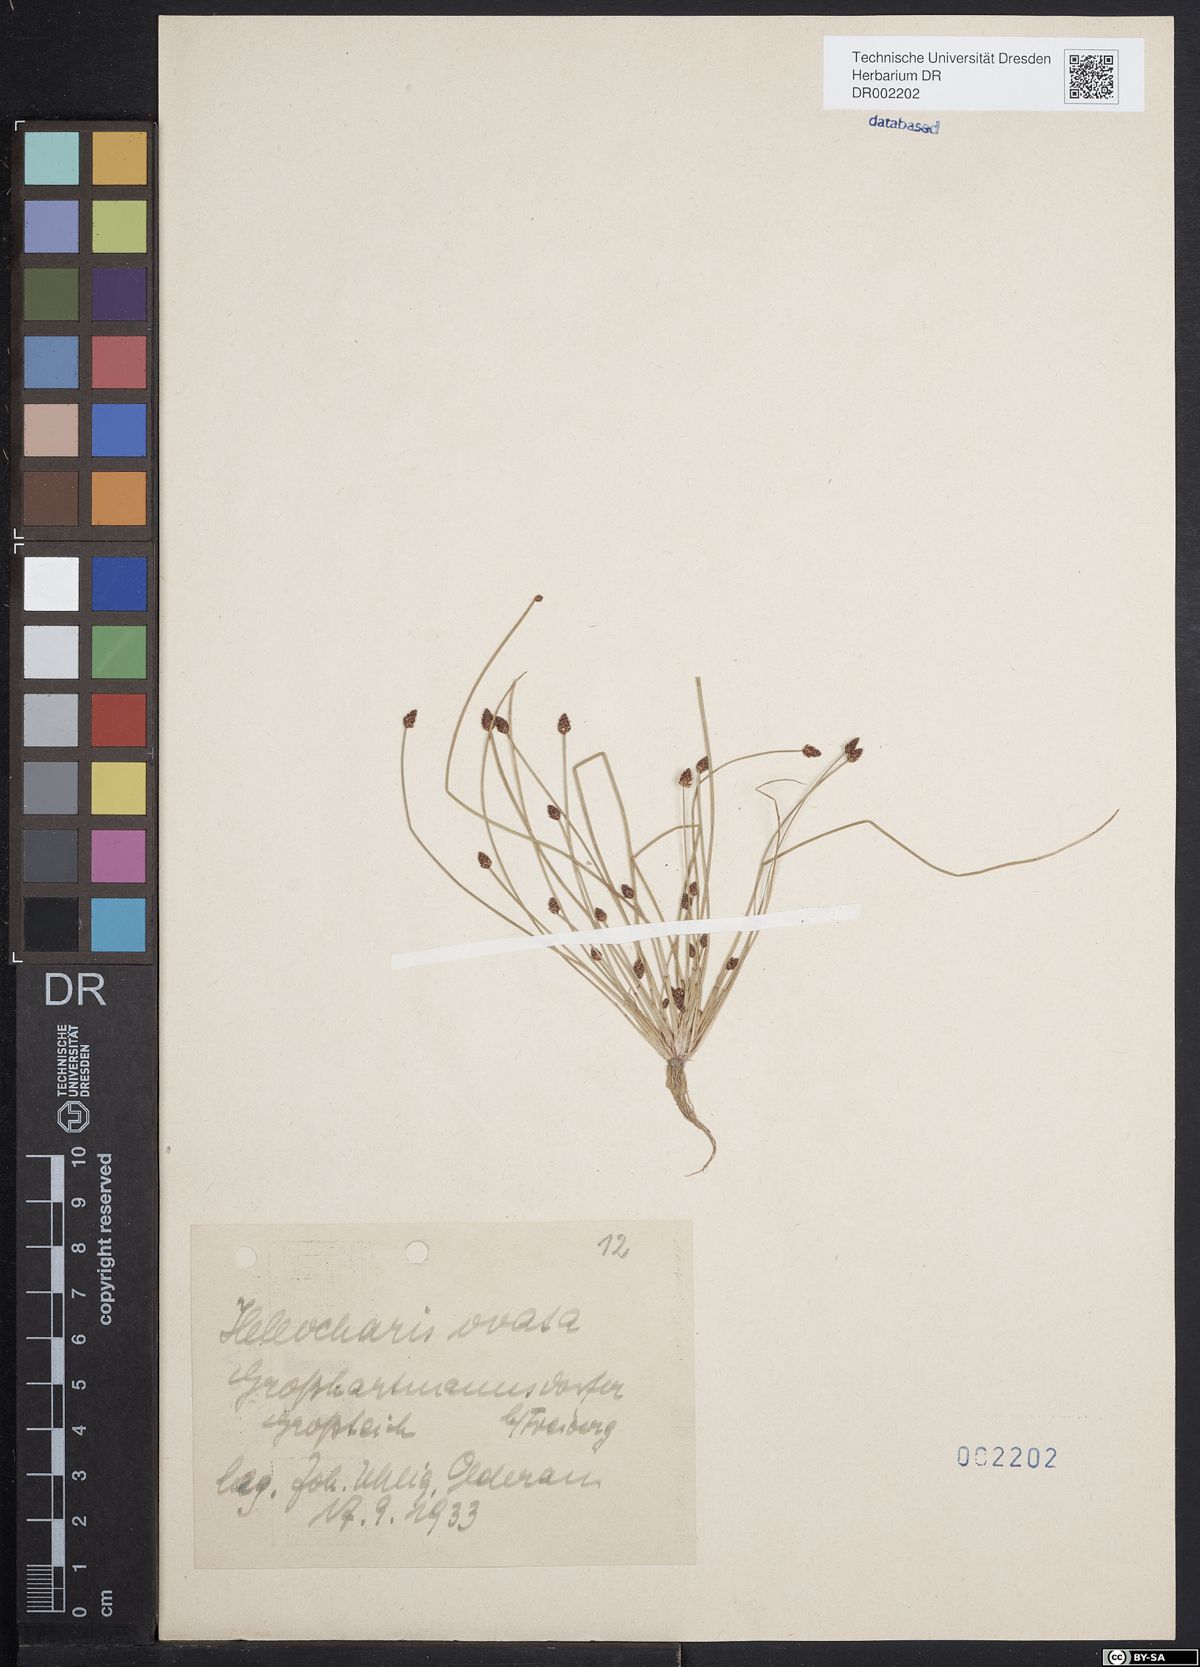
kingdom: Plantae
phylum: Tracheophyta
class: Liliopsida
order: Poales
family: Cyperaceae
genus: Eleocharis
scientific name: Eleocharis ovata
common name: Oval spike-rush
